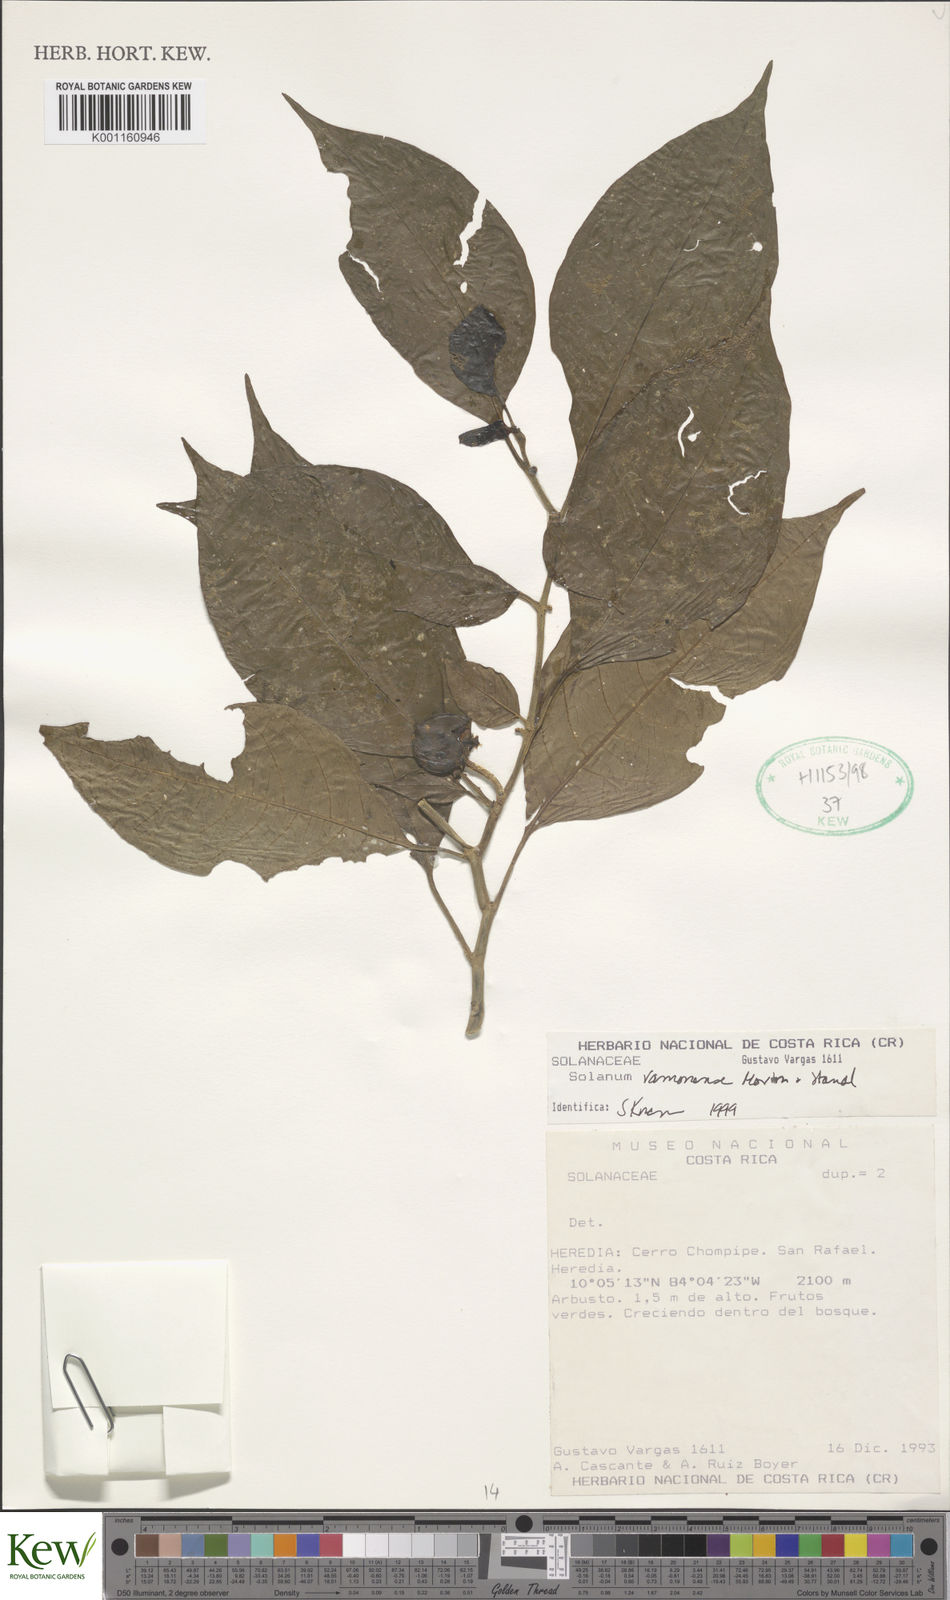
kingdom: Plantae
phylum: Tracheophyta
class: Magnoliopsida
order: Solanales
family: Solanaceae
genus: Solanum
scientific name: Solanum ramonense
